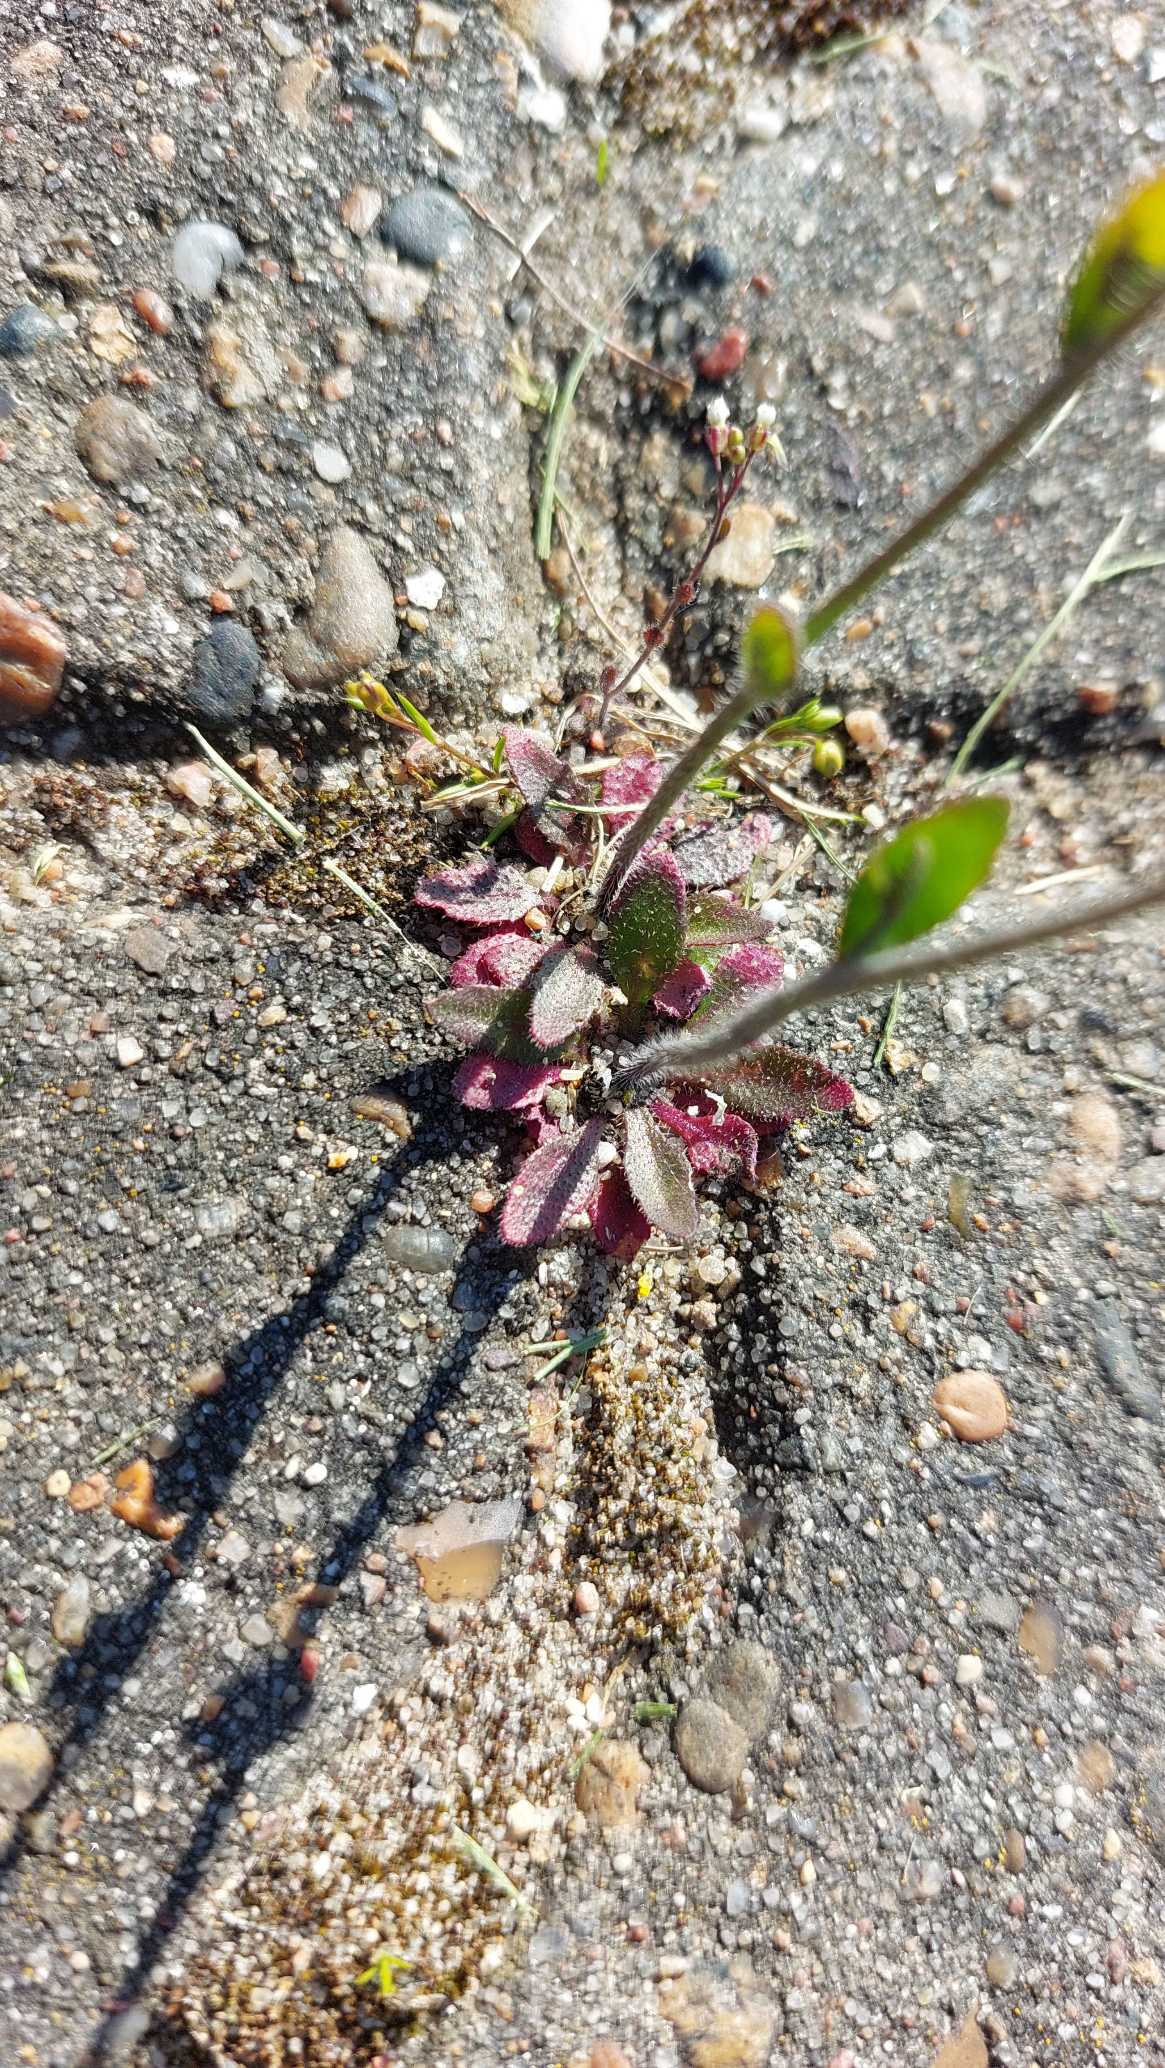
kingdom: Plantae
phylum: Tracheophyta
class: Magnoliopsida
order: Brassicales
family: Brassicaceae
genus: Arabidopsis
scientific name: Arabidopsis thaliana
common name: Almindelig gåsemad
